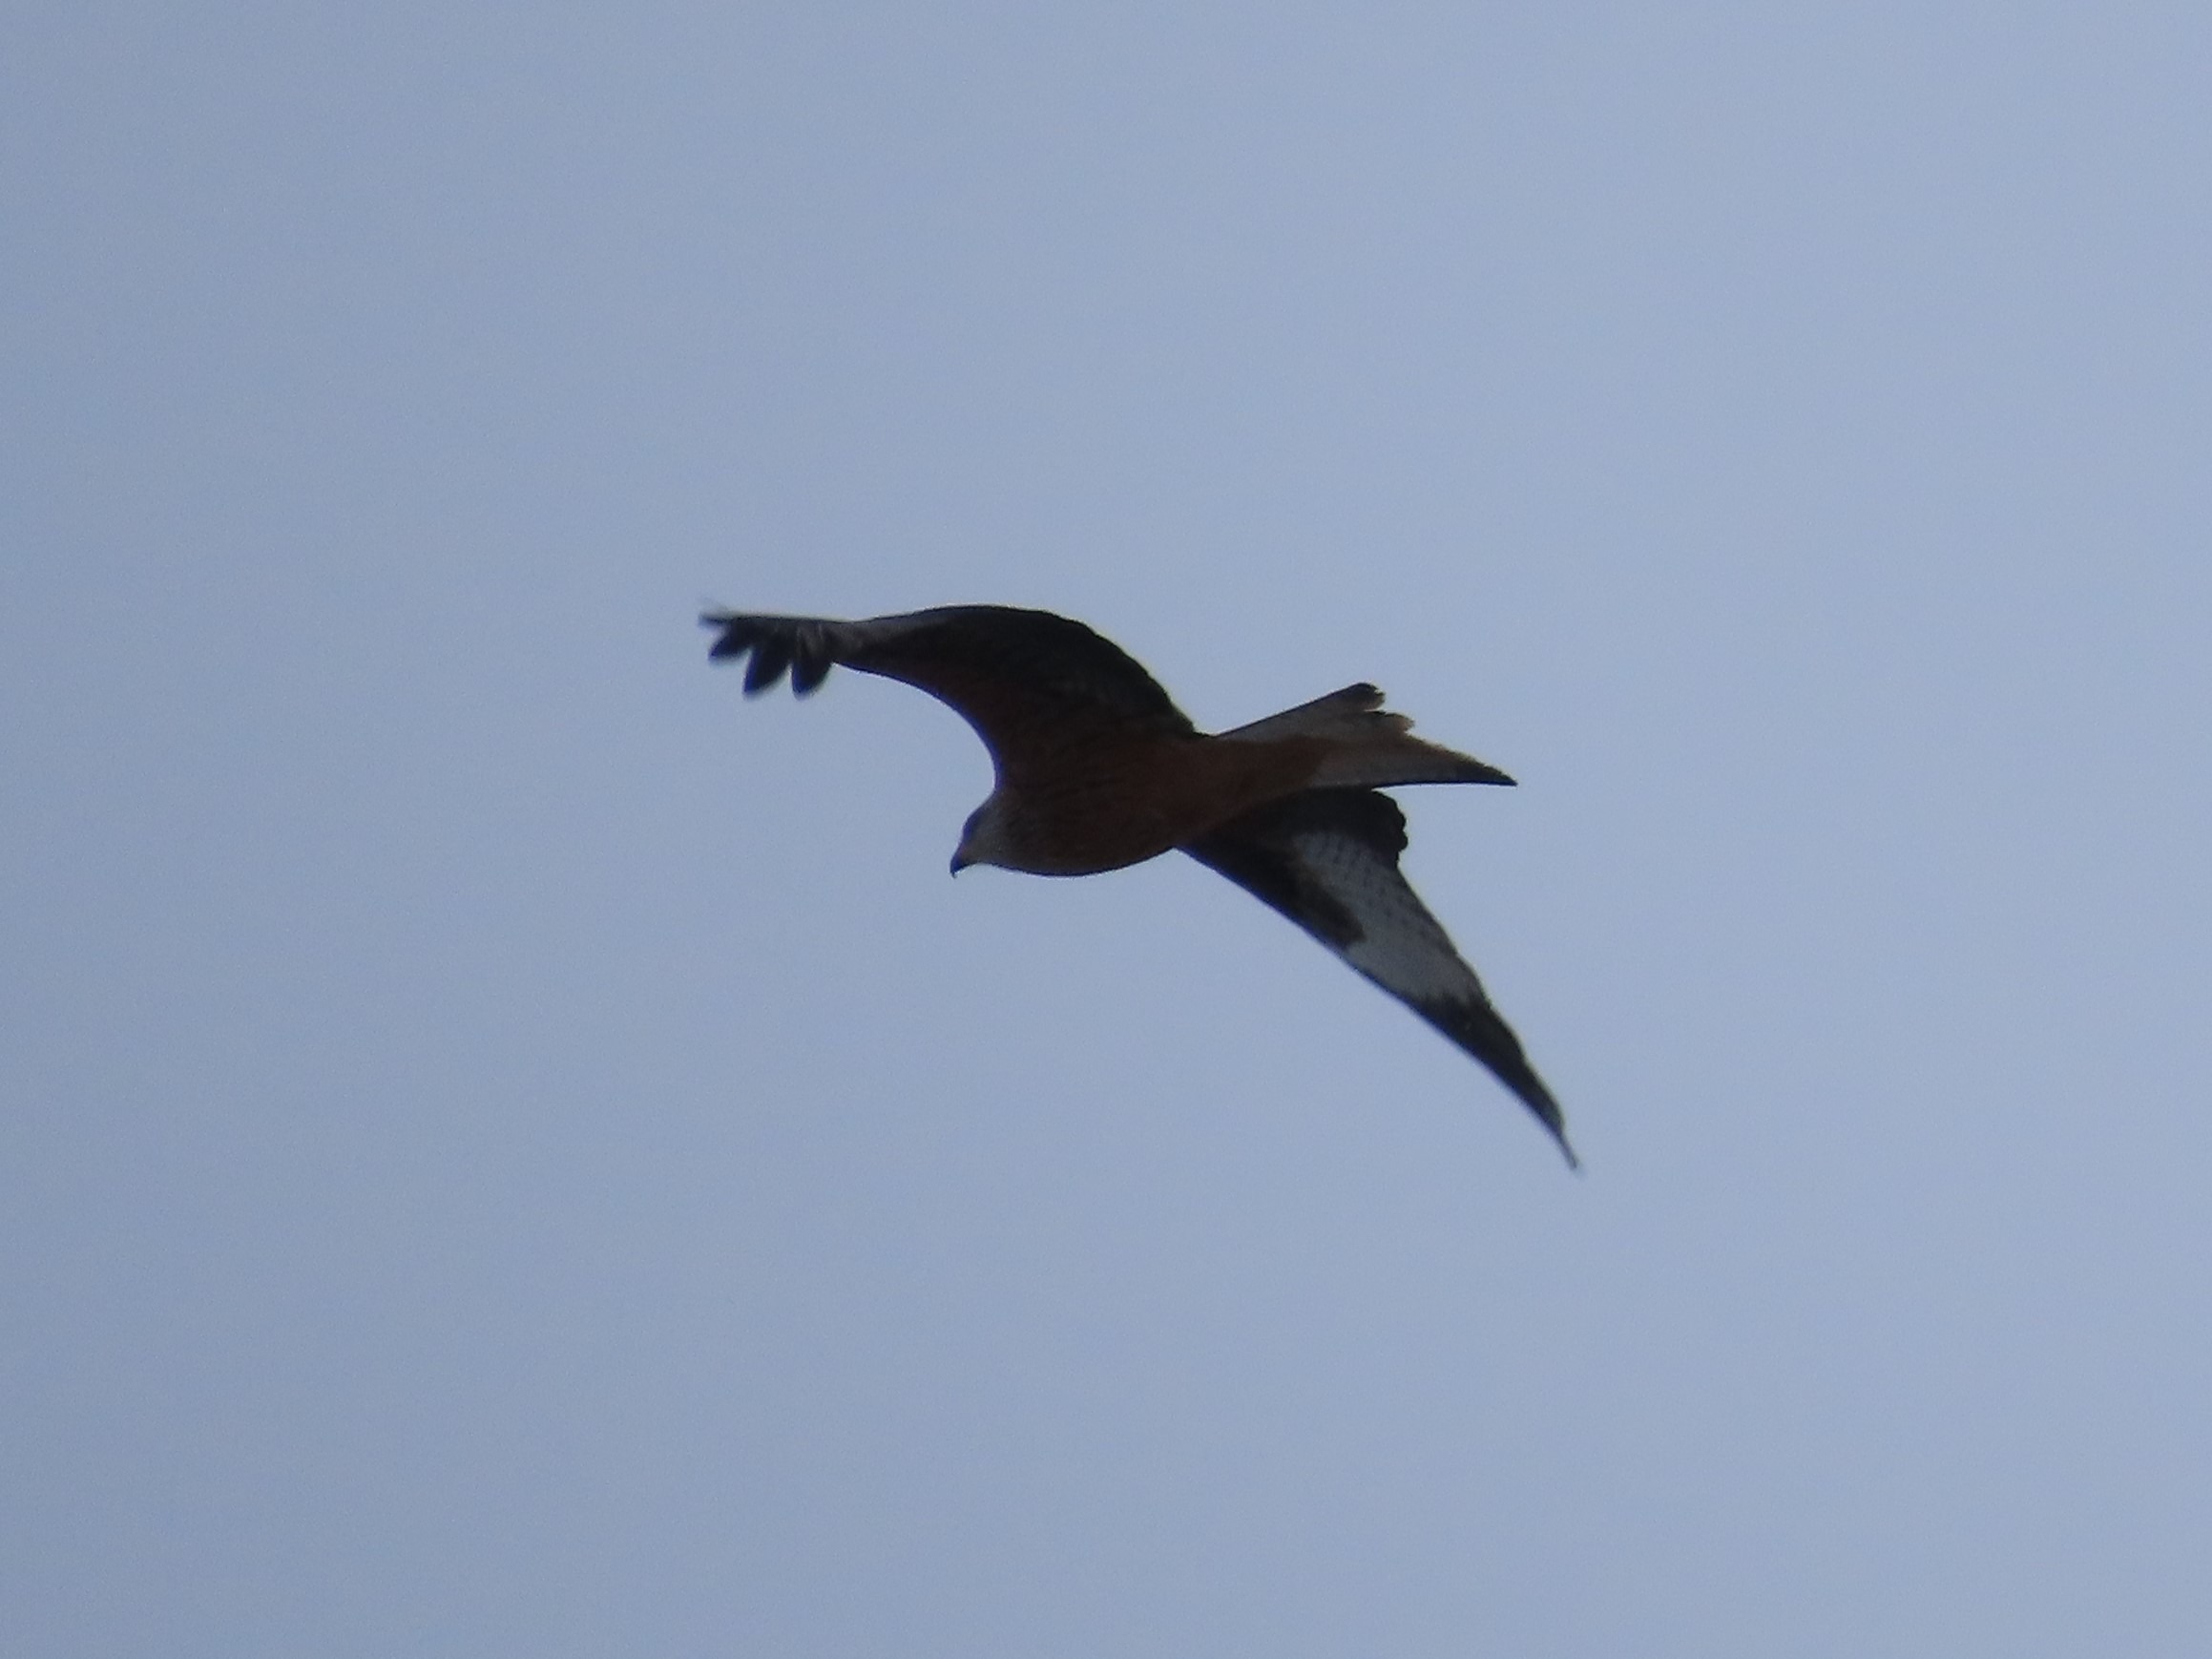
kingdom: Animalia
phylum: Chordata
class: Aves
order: Accipitriformes
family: Accipitridae
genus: Milvus
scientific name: Milvus milvus
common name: Rød glente
